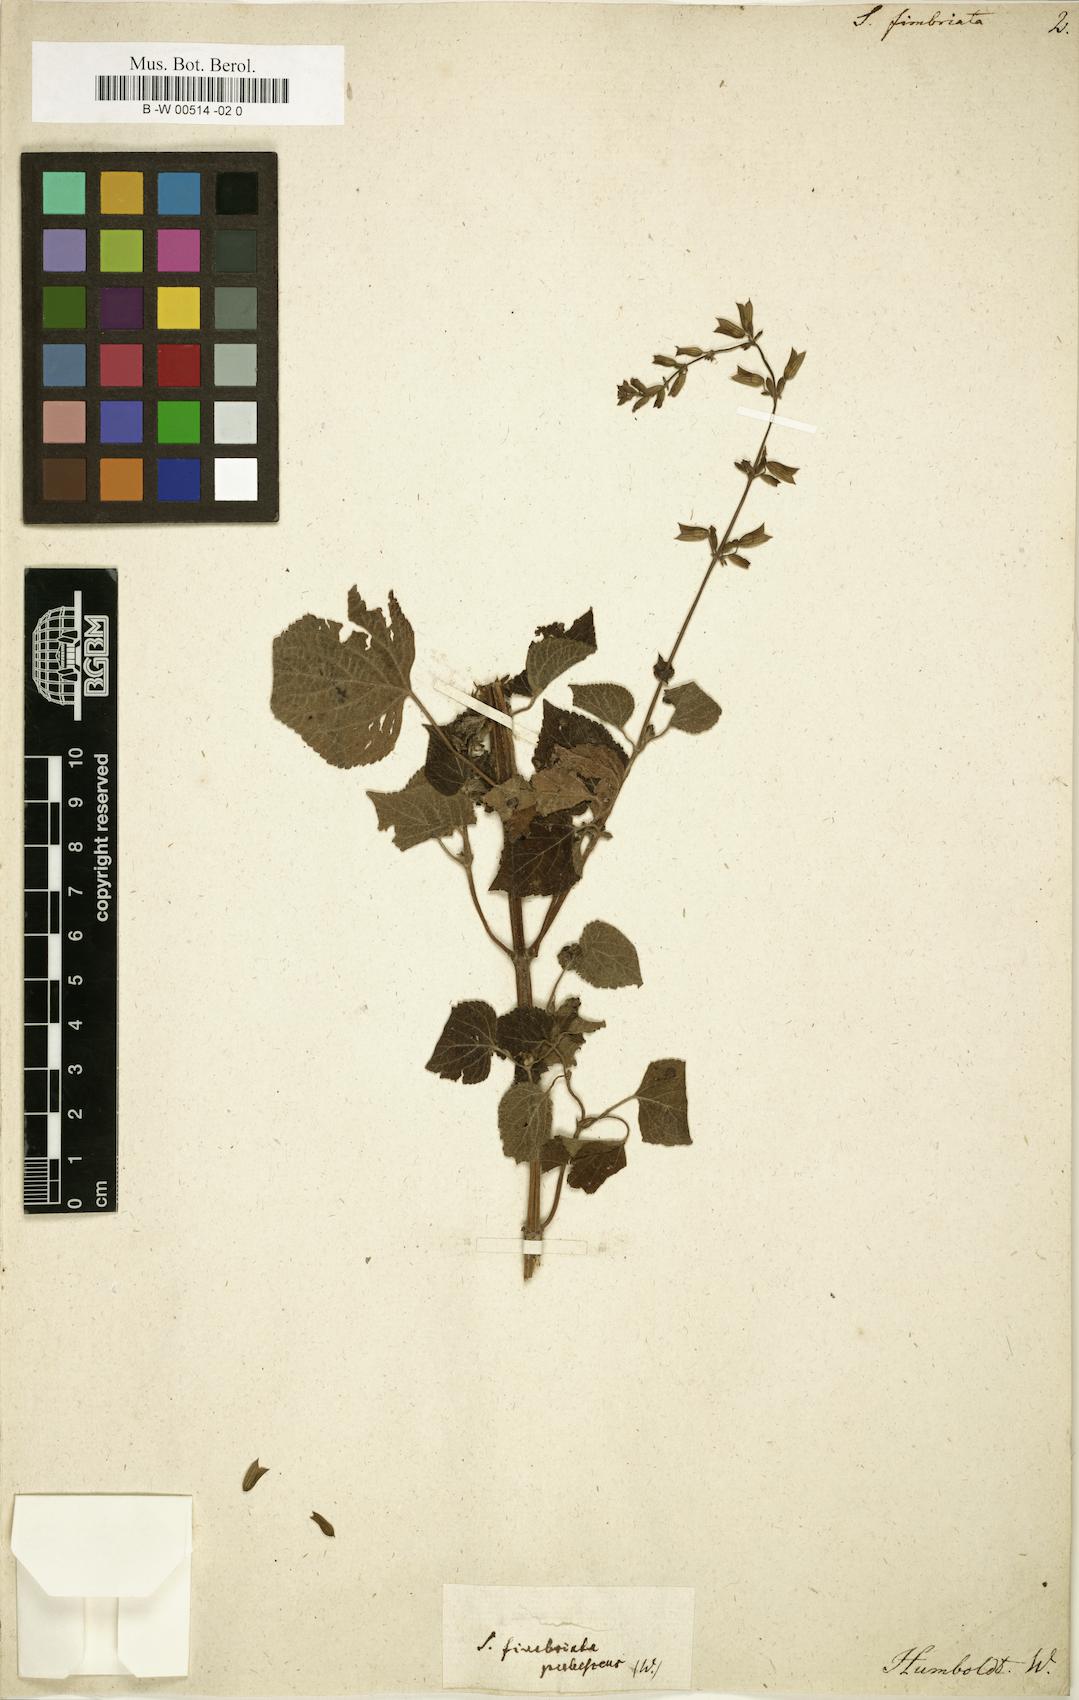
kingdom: Plantae
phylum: Tracheophyta
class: Magnoliopsida
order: Lamiales
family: Lamiaceae
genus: Salvia
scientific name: Salvia tiliifolia
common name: Lindenleaf sage
